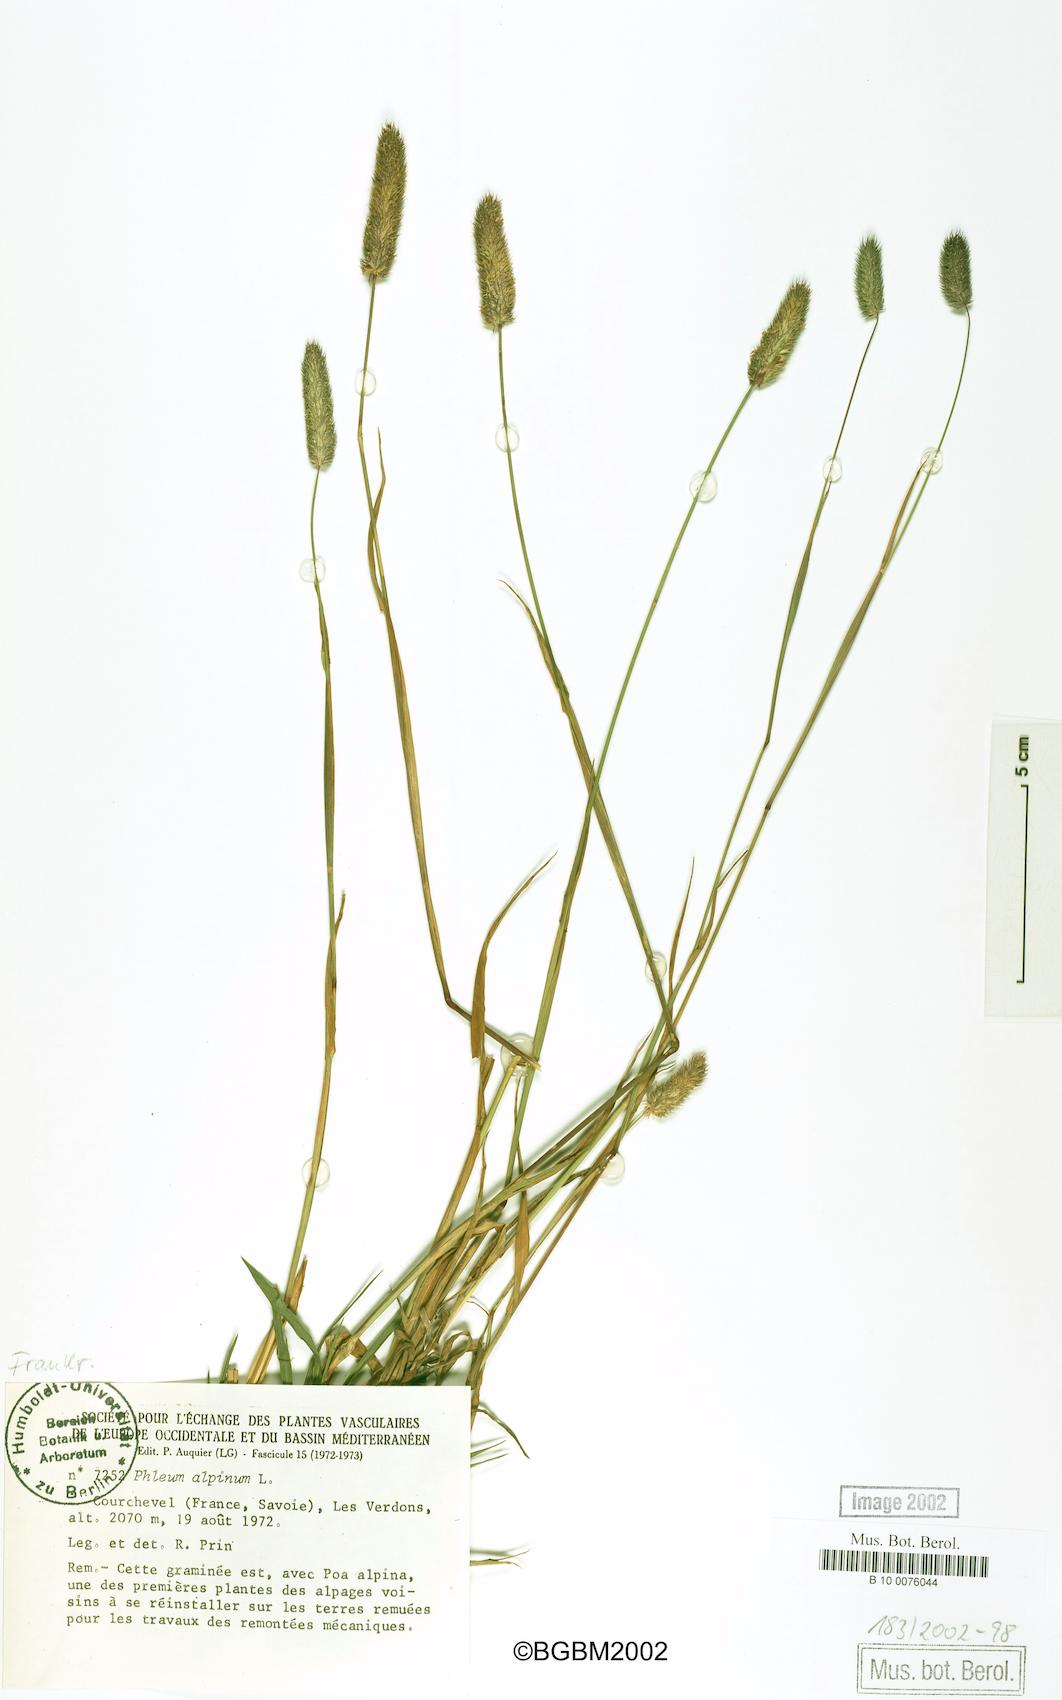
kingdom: Plantae
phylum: Tracheophyta
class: Liliopsida
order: Poales
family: Poaceae
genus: Phleum
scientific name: Phleum alpinum
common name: Alpine cat's-tail
